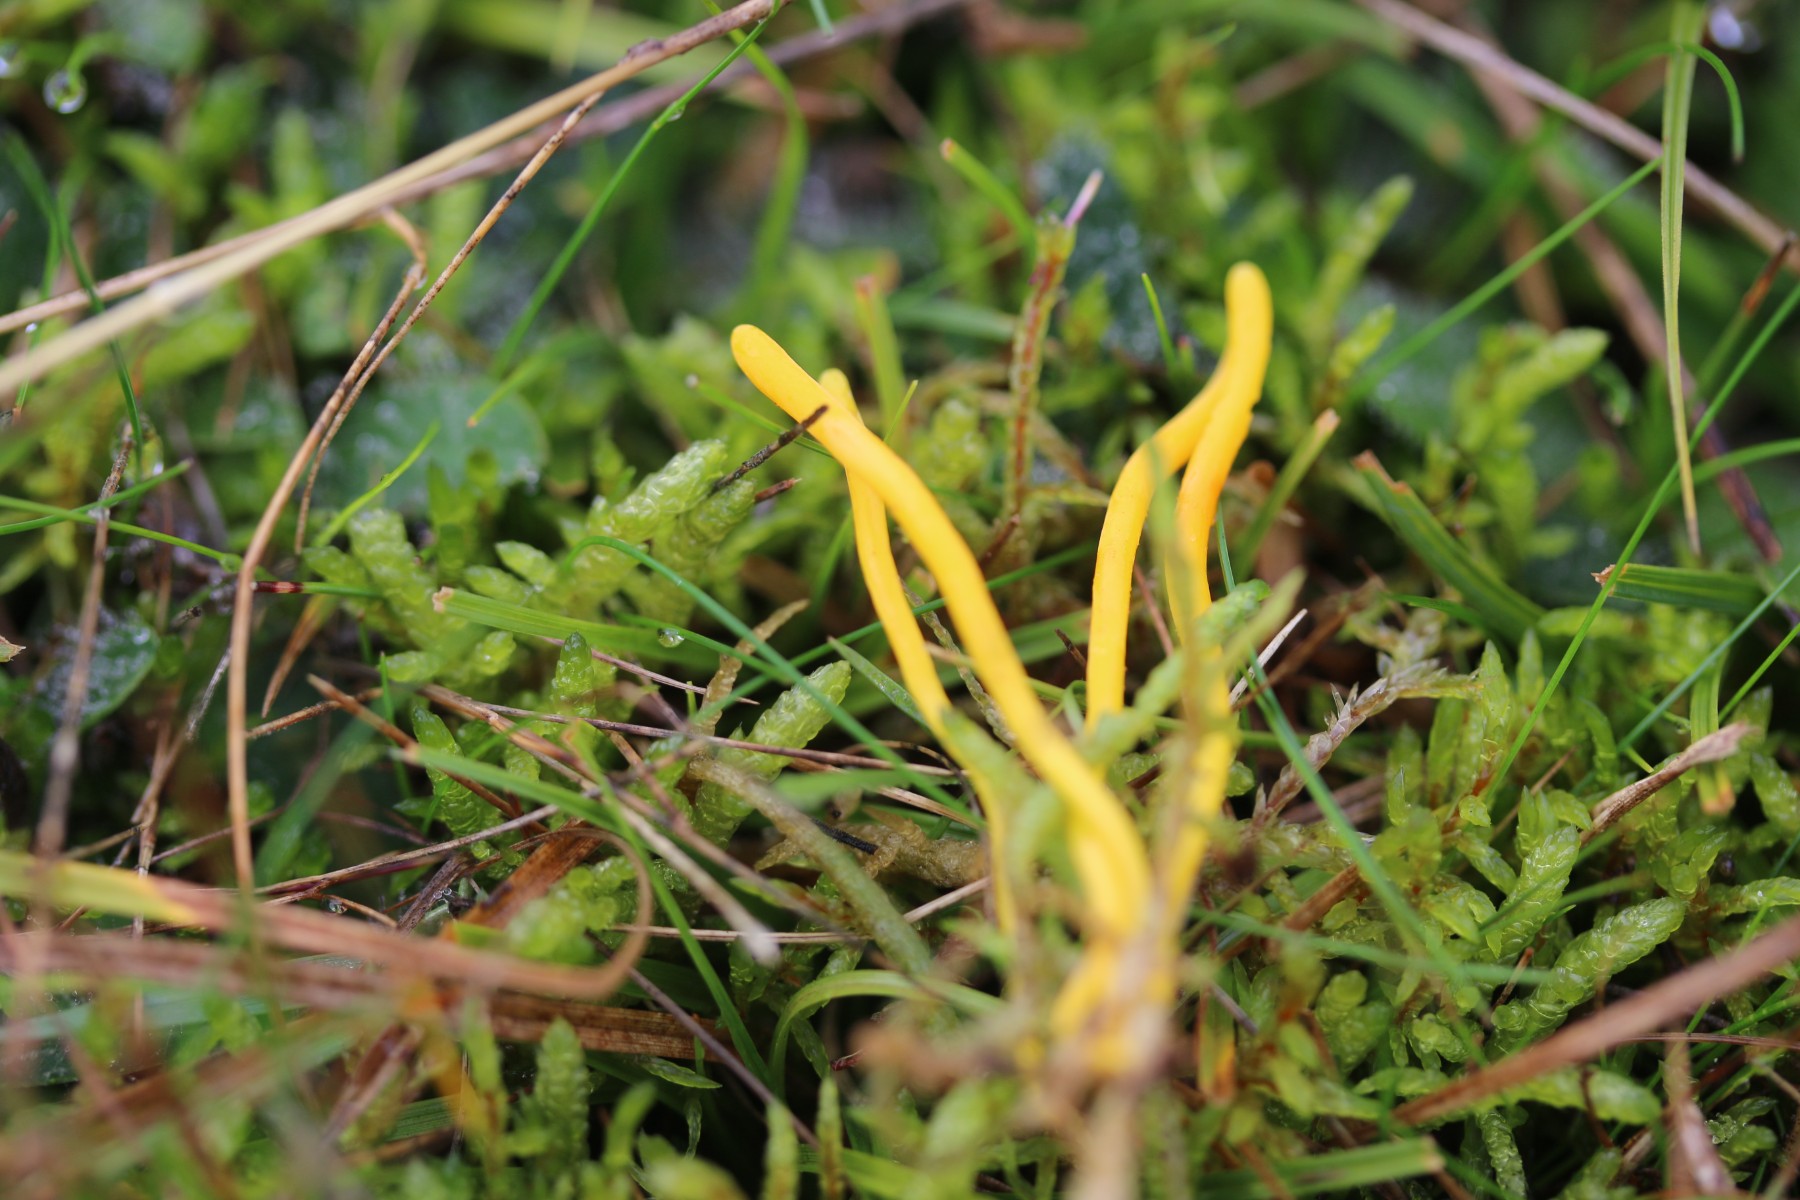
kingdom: Fungi
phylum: Basidiomycota
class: Agaricomycetes
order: Agaricales
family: Clavariaceae
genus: Clavulinopsis
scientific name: Clavulinopsis helvola
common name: orangegul køllesvamp
